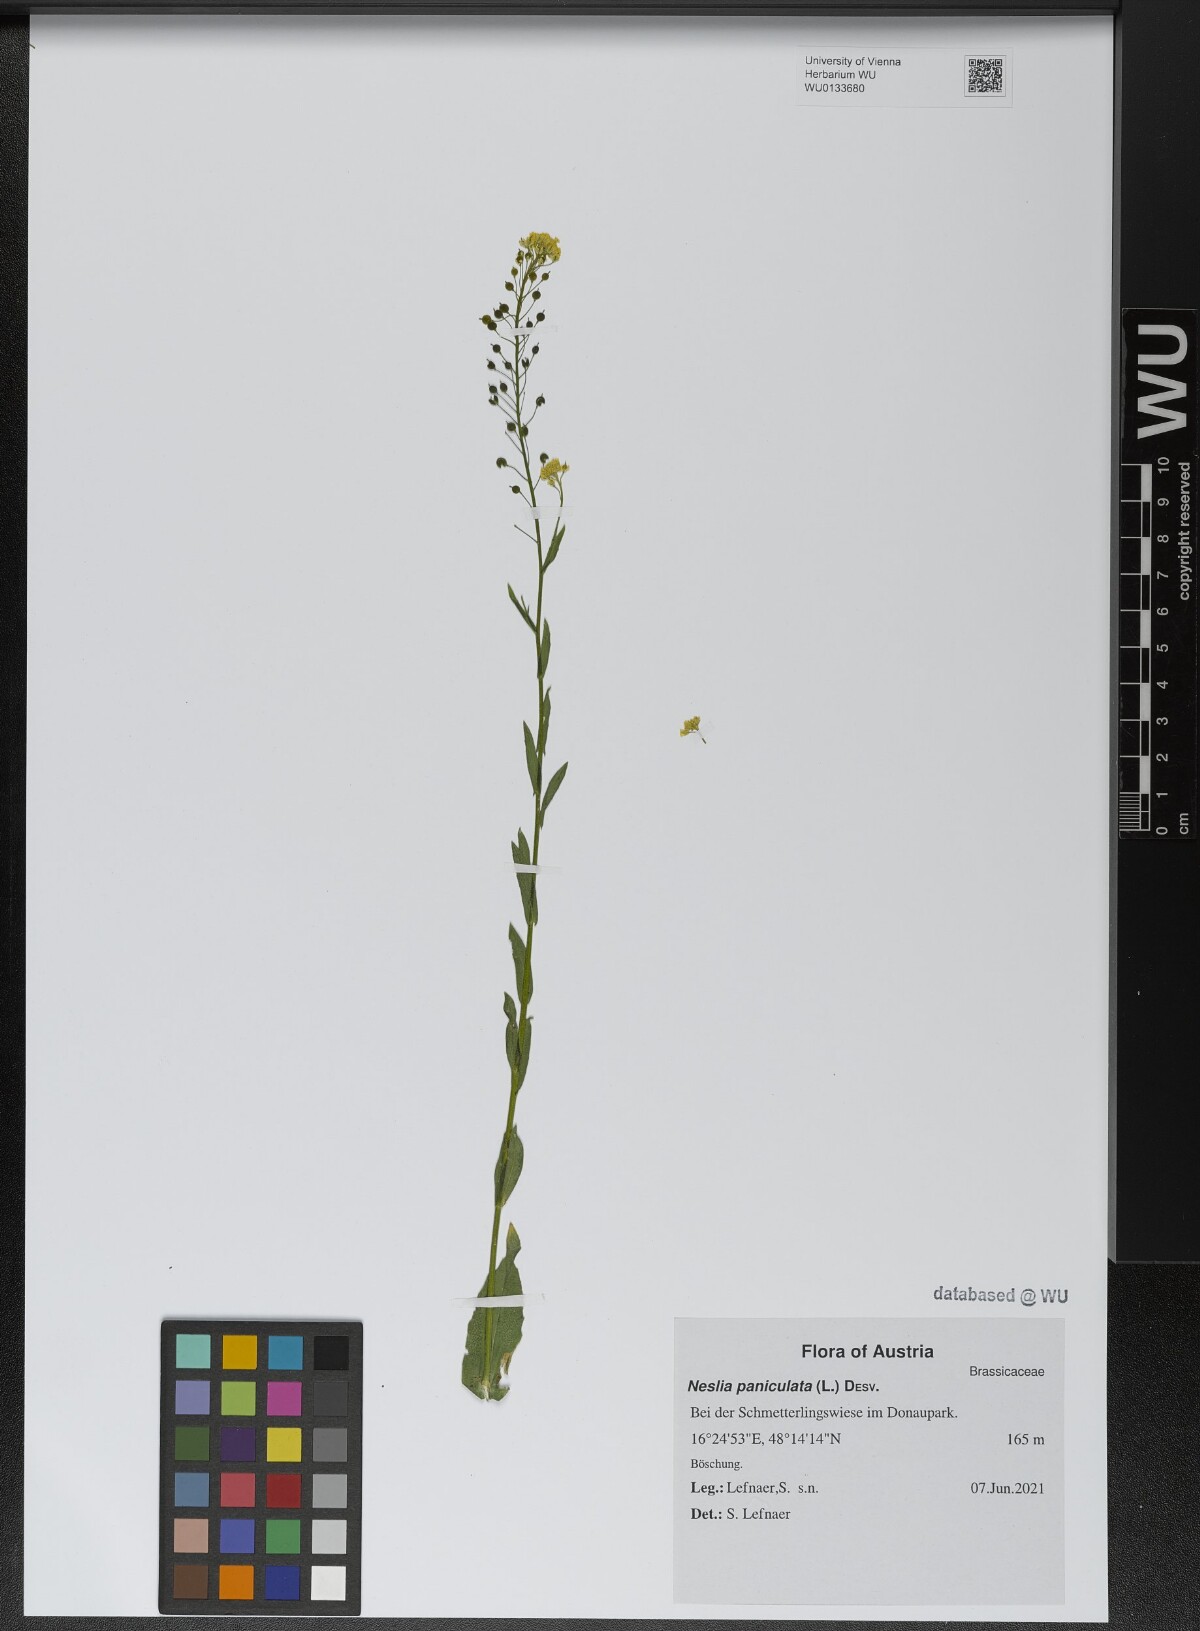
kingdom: Plantae
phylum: Tracheophyta
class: Magnoliopsida
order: Brassicales
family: Brassicaceae
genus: Neslia
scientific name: Neslia paniculata
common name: Ball mustard
